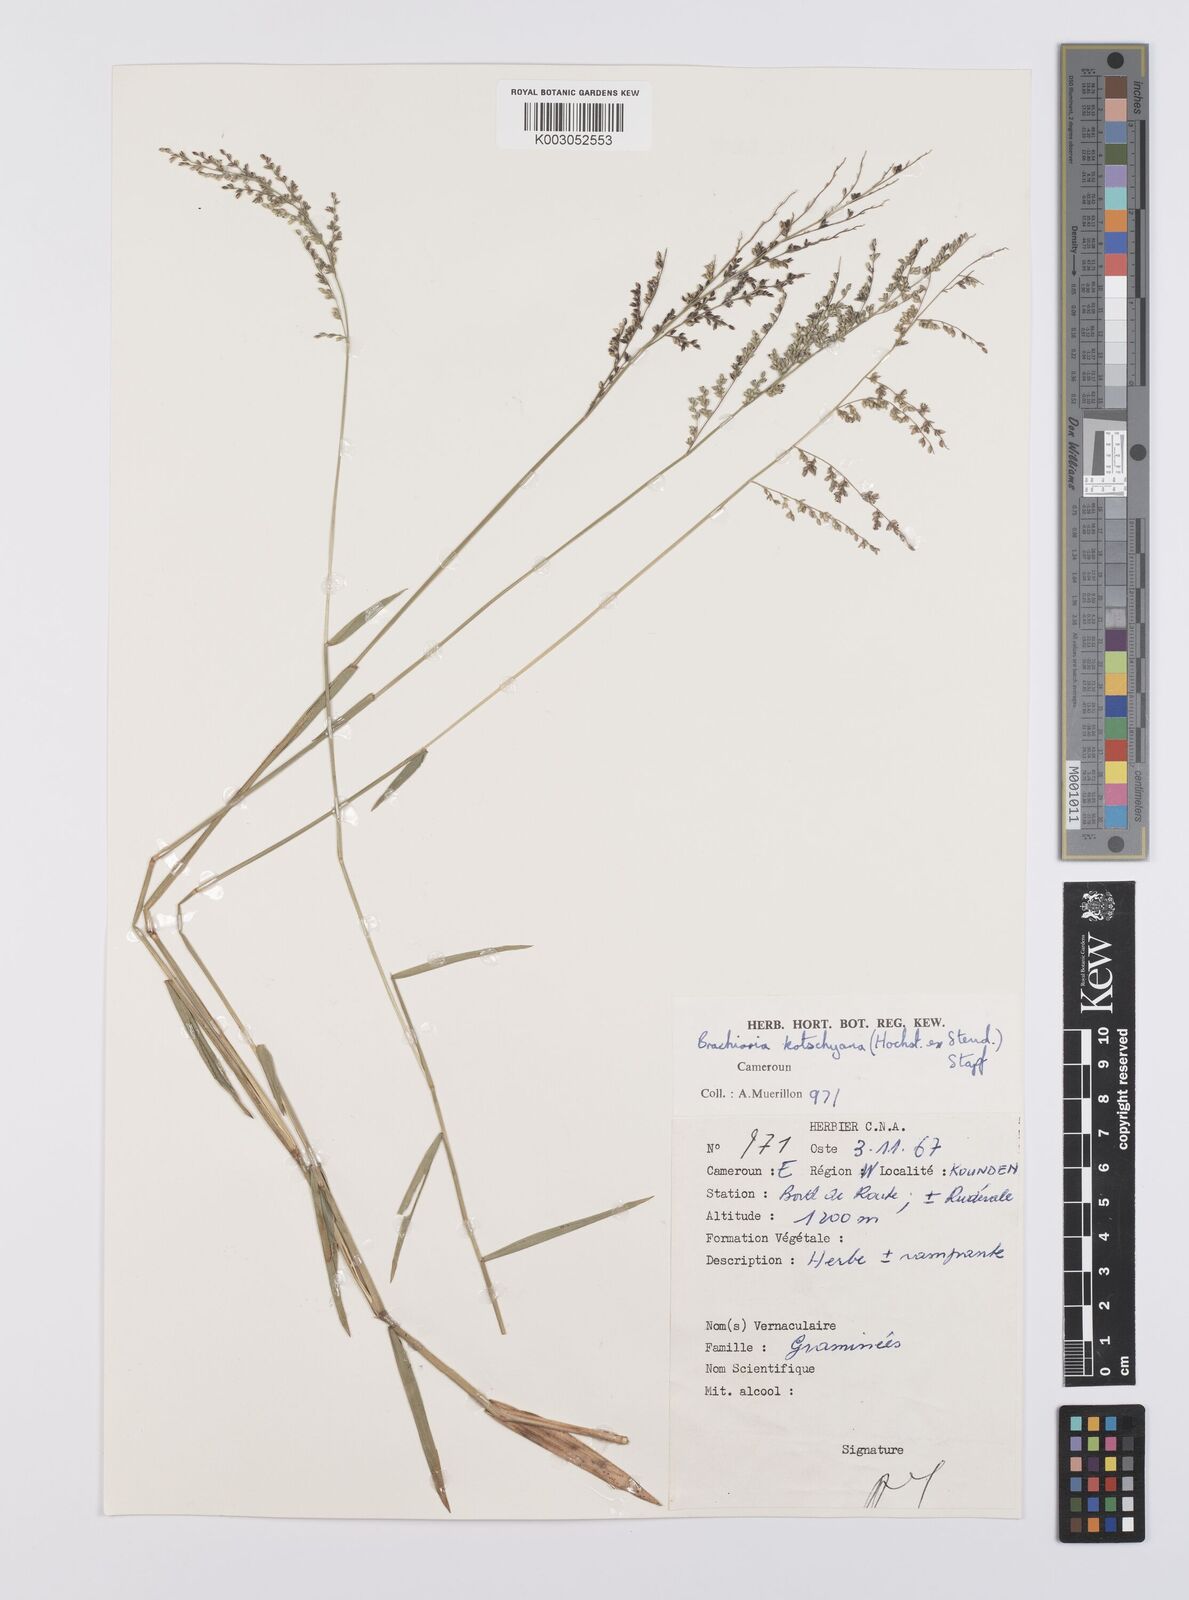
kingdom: Plantae
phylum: Tracheophyta
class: Liliopsida
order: Poales
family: Poaceae
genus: Urochloa
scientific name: Urochloa comata
